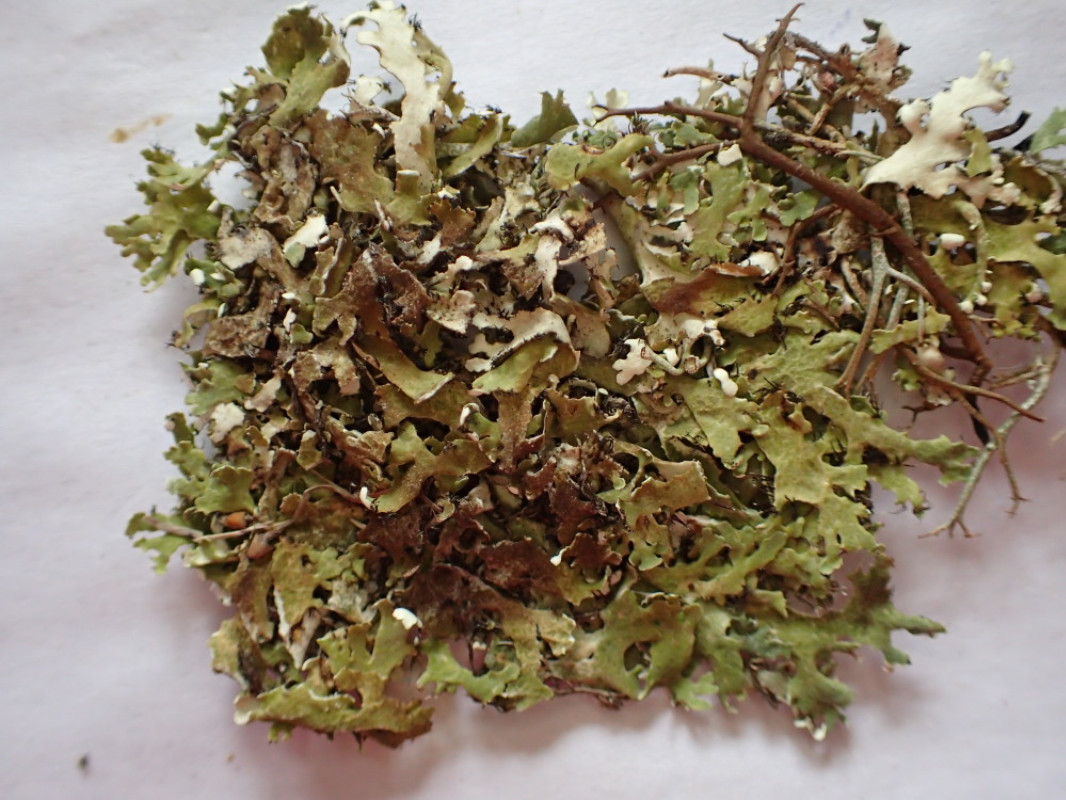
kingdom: Fungi
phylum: Ascomycota
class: Lecanoromycetes
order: Lecanorales
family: Cladoniaceae
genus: Cladonia
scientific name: Cladonia foliacea
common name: fliget bægerlav
